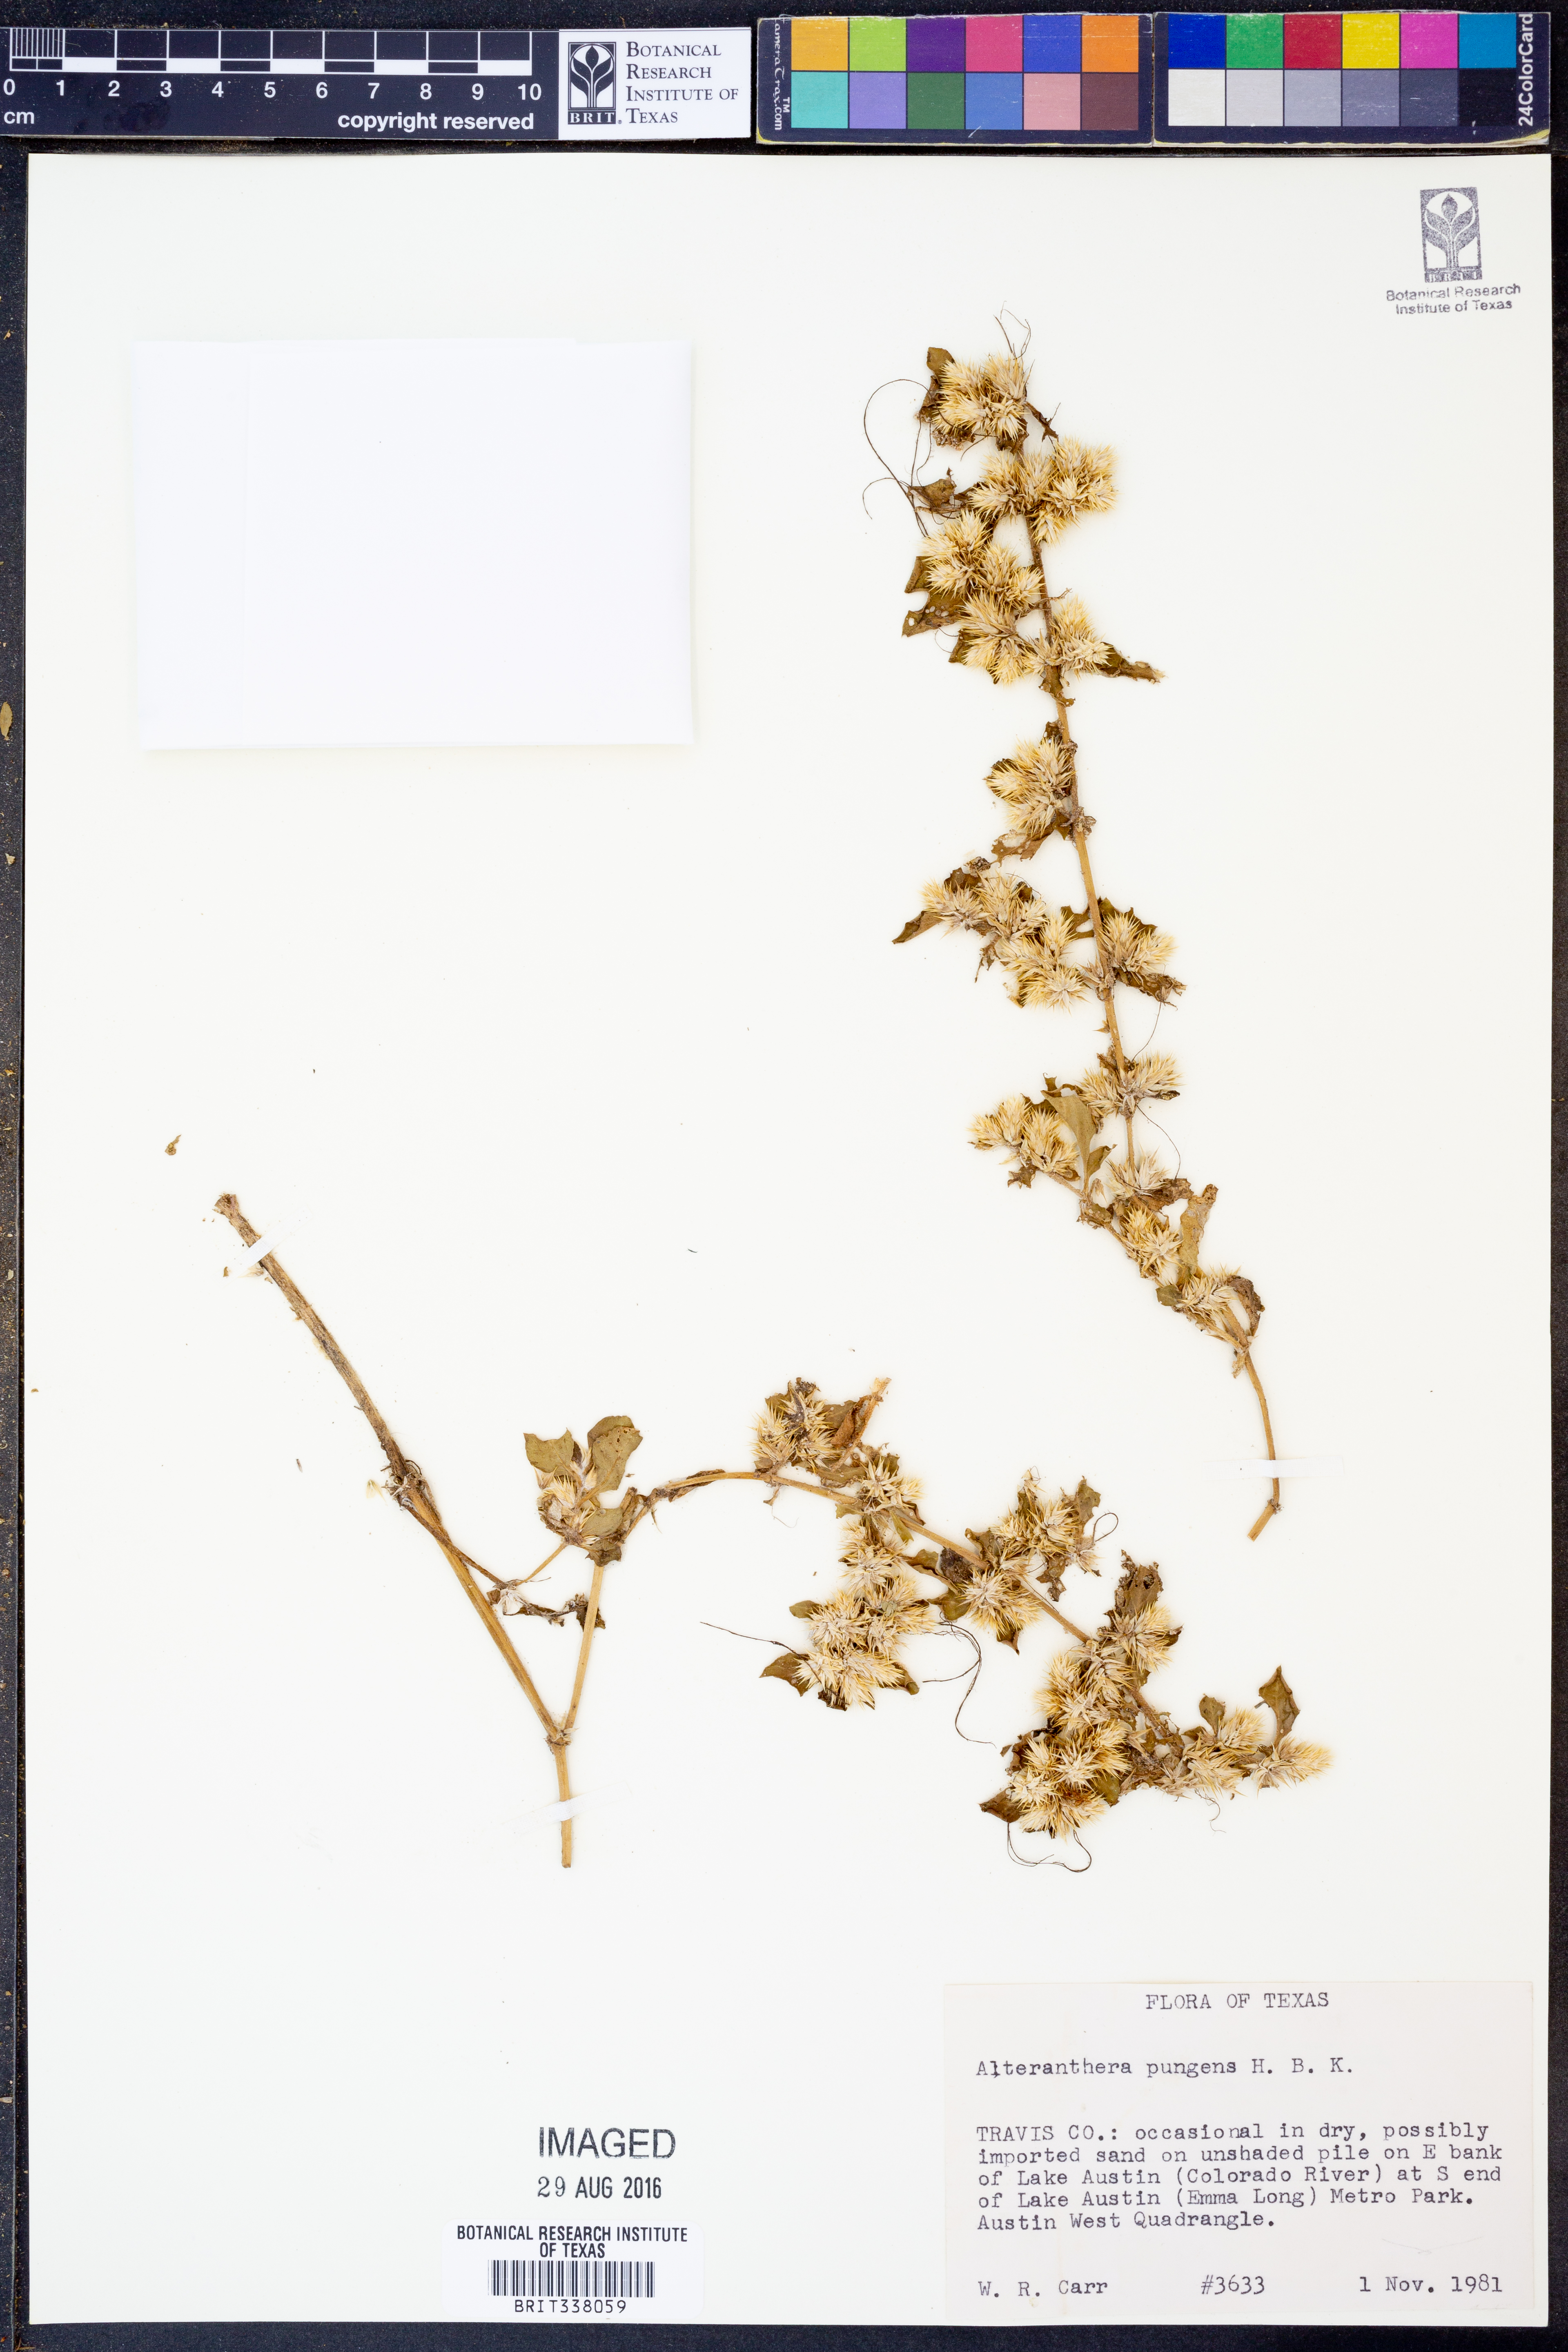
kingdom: Plantae
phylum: Tracheophyta
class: Magnoliopsida
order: Caryophyllales
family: Amaranthaceae
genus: Alternanthera
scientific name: Alternanthera pungens
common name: Khakiweed
